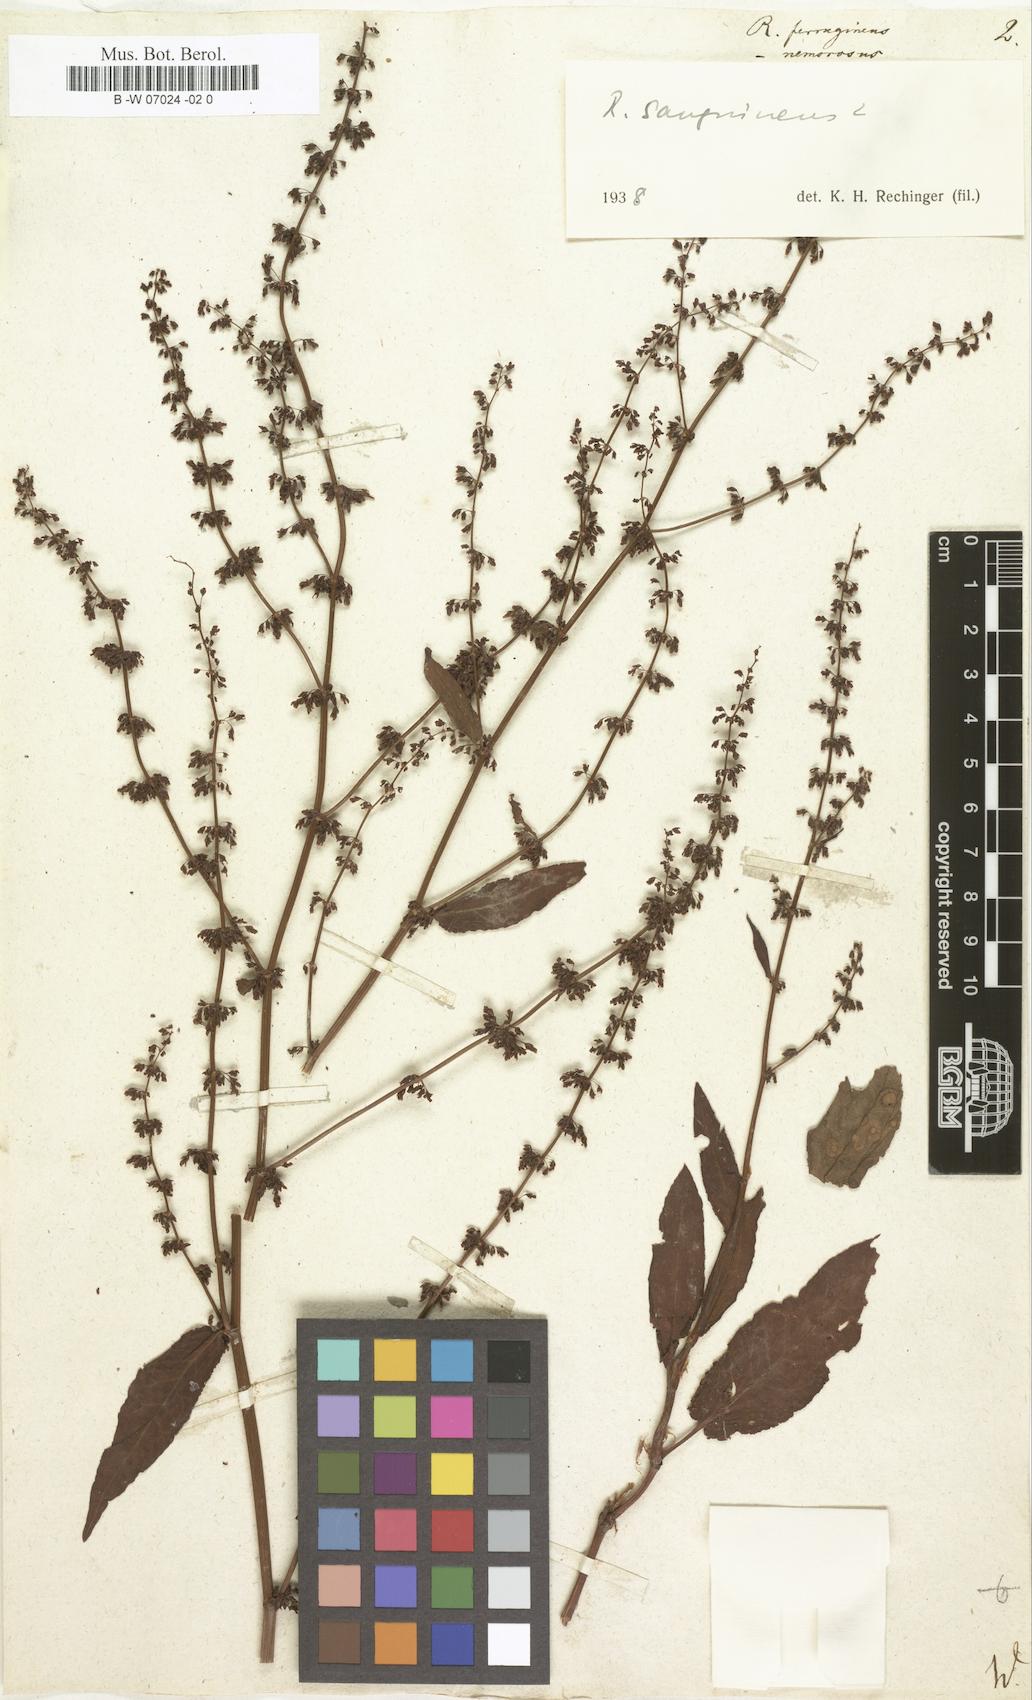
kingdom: Plantae
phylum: Tracheophyta
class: Magnoliopsida
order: Caryophyllales
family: Polygonaceae
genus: Rumex
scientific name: Rumex conglomeratus
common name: Clustered dock
